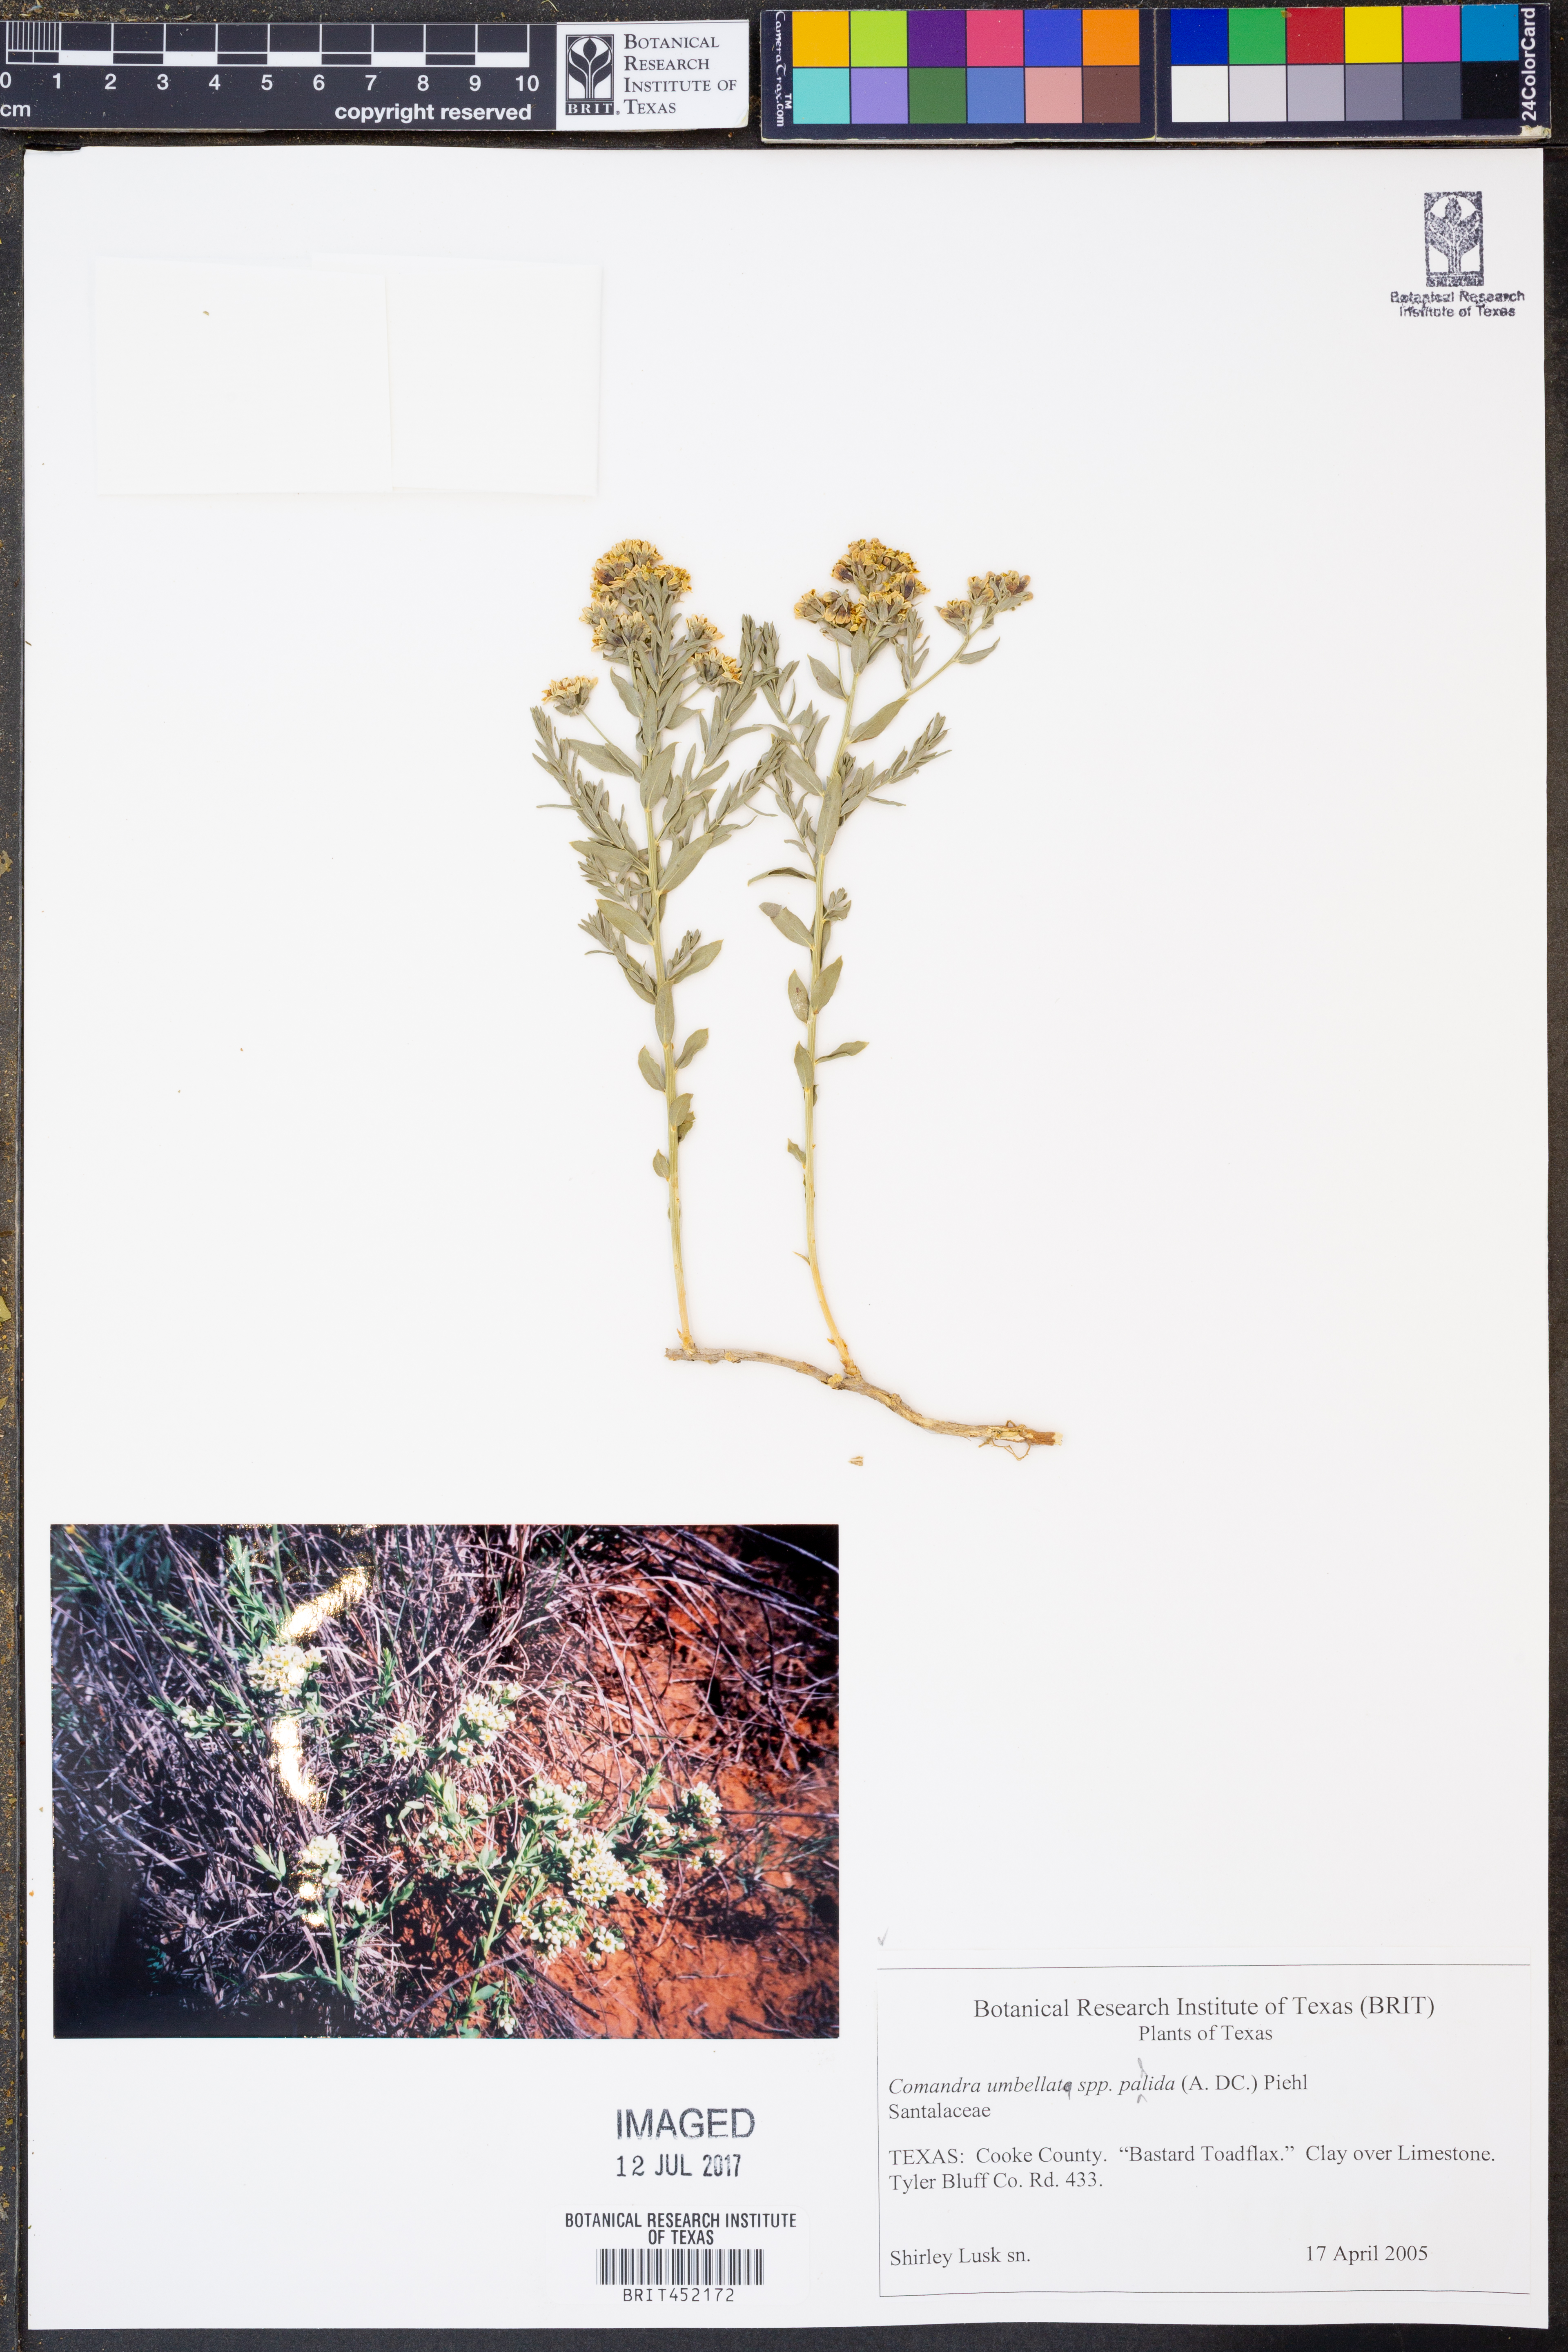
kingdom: Plantae
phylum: Tracheophyta
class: Magnoliopsida
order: Santalales
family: Comandraceae
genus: Comandra
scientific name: Comandra umbellata
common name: Bastard toadflax
